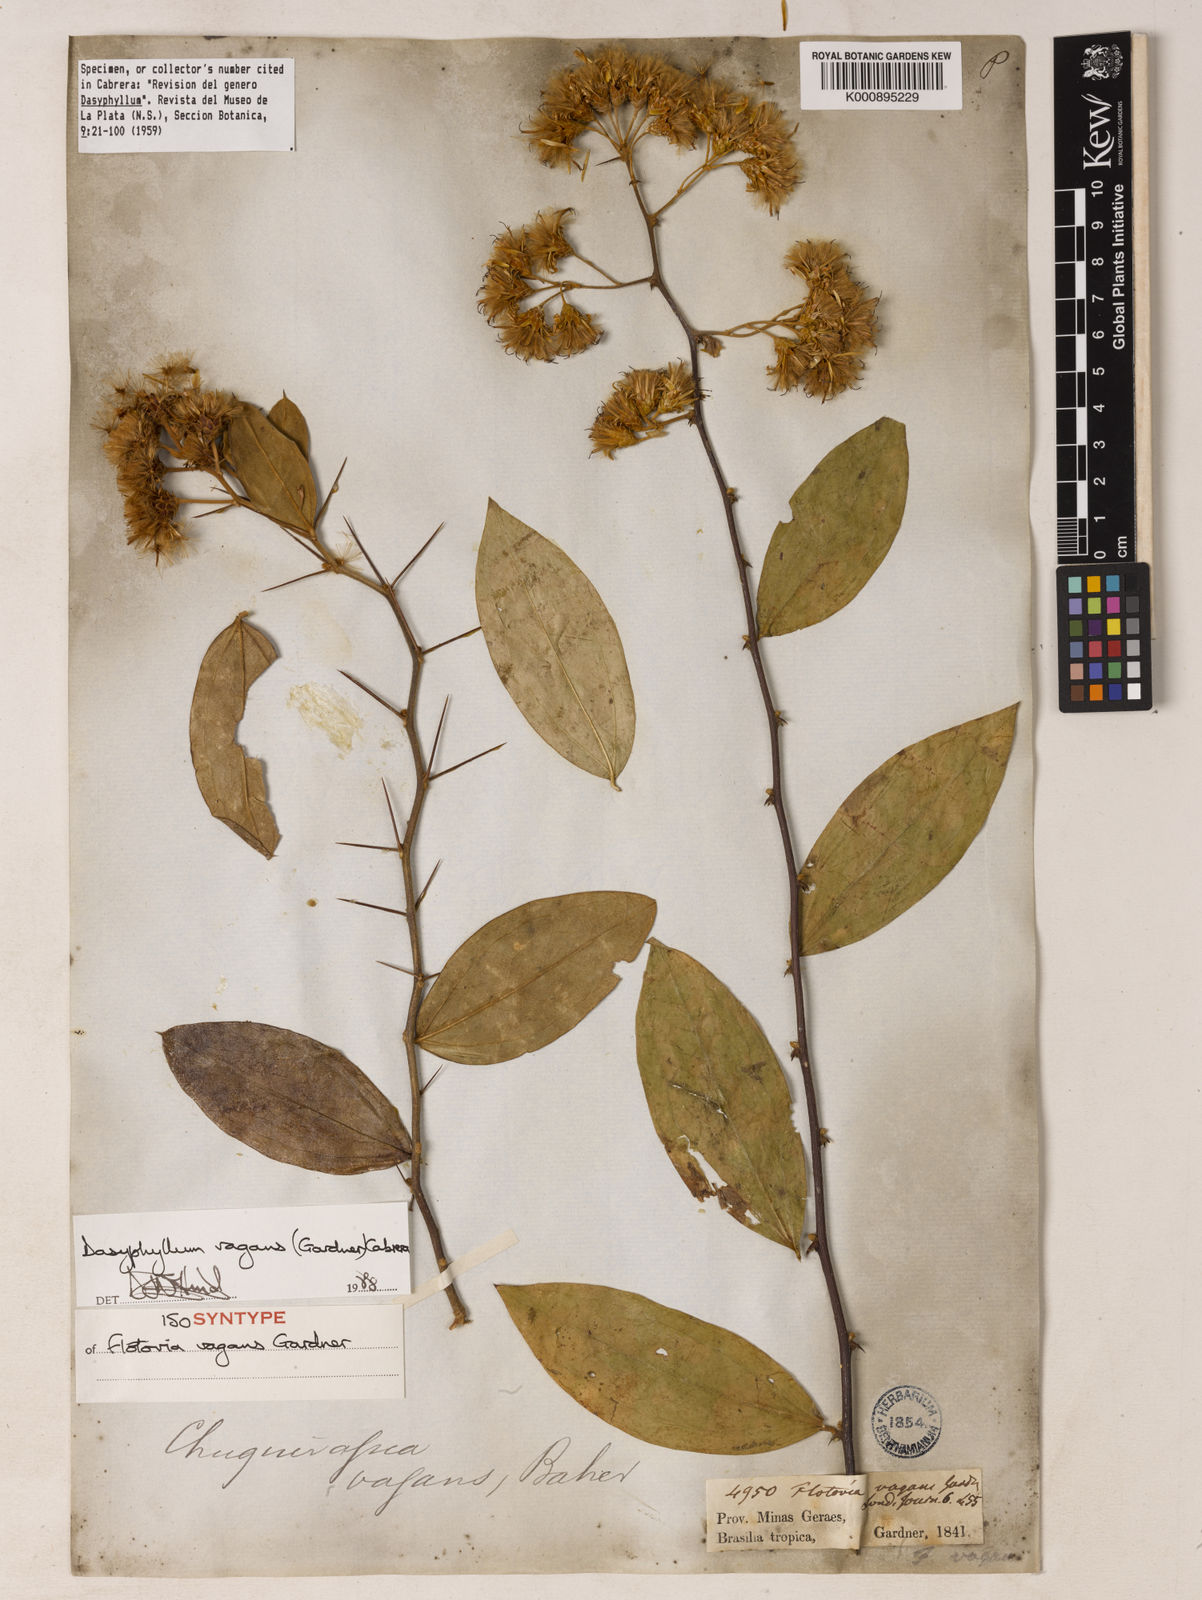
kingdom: Plantae
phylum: Tracheophyta
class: Magnoliopsida
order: Asterales
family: Asteraceae
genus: Dasyphyllum
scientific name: Dasyphyllum vagans
